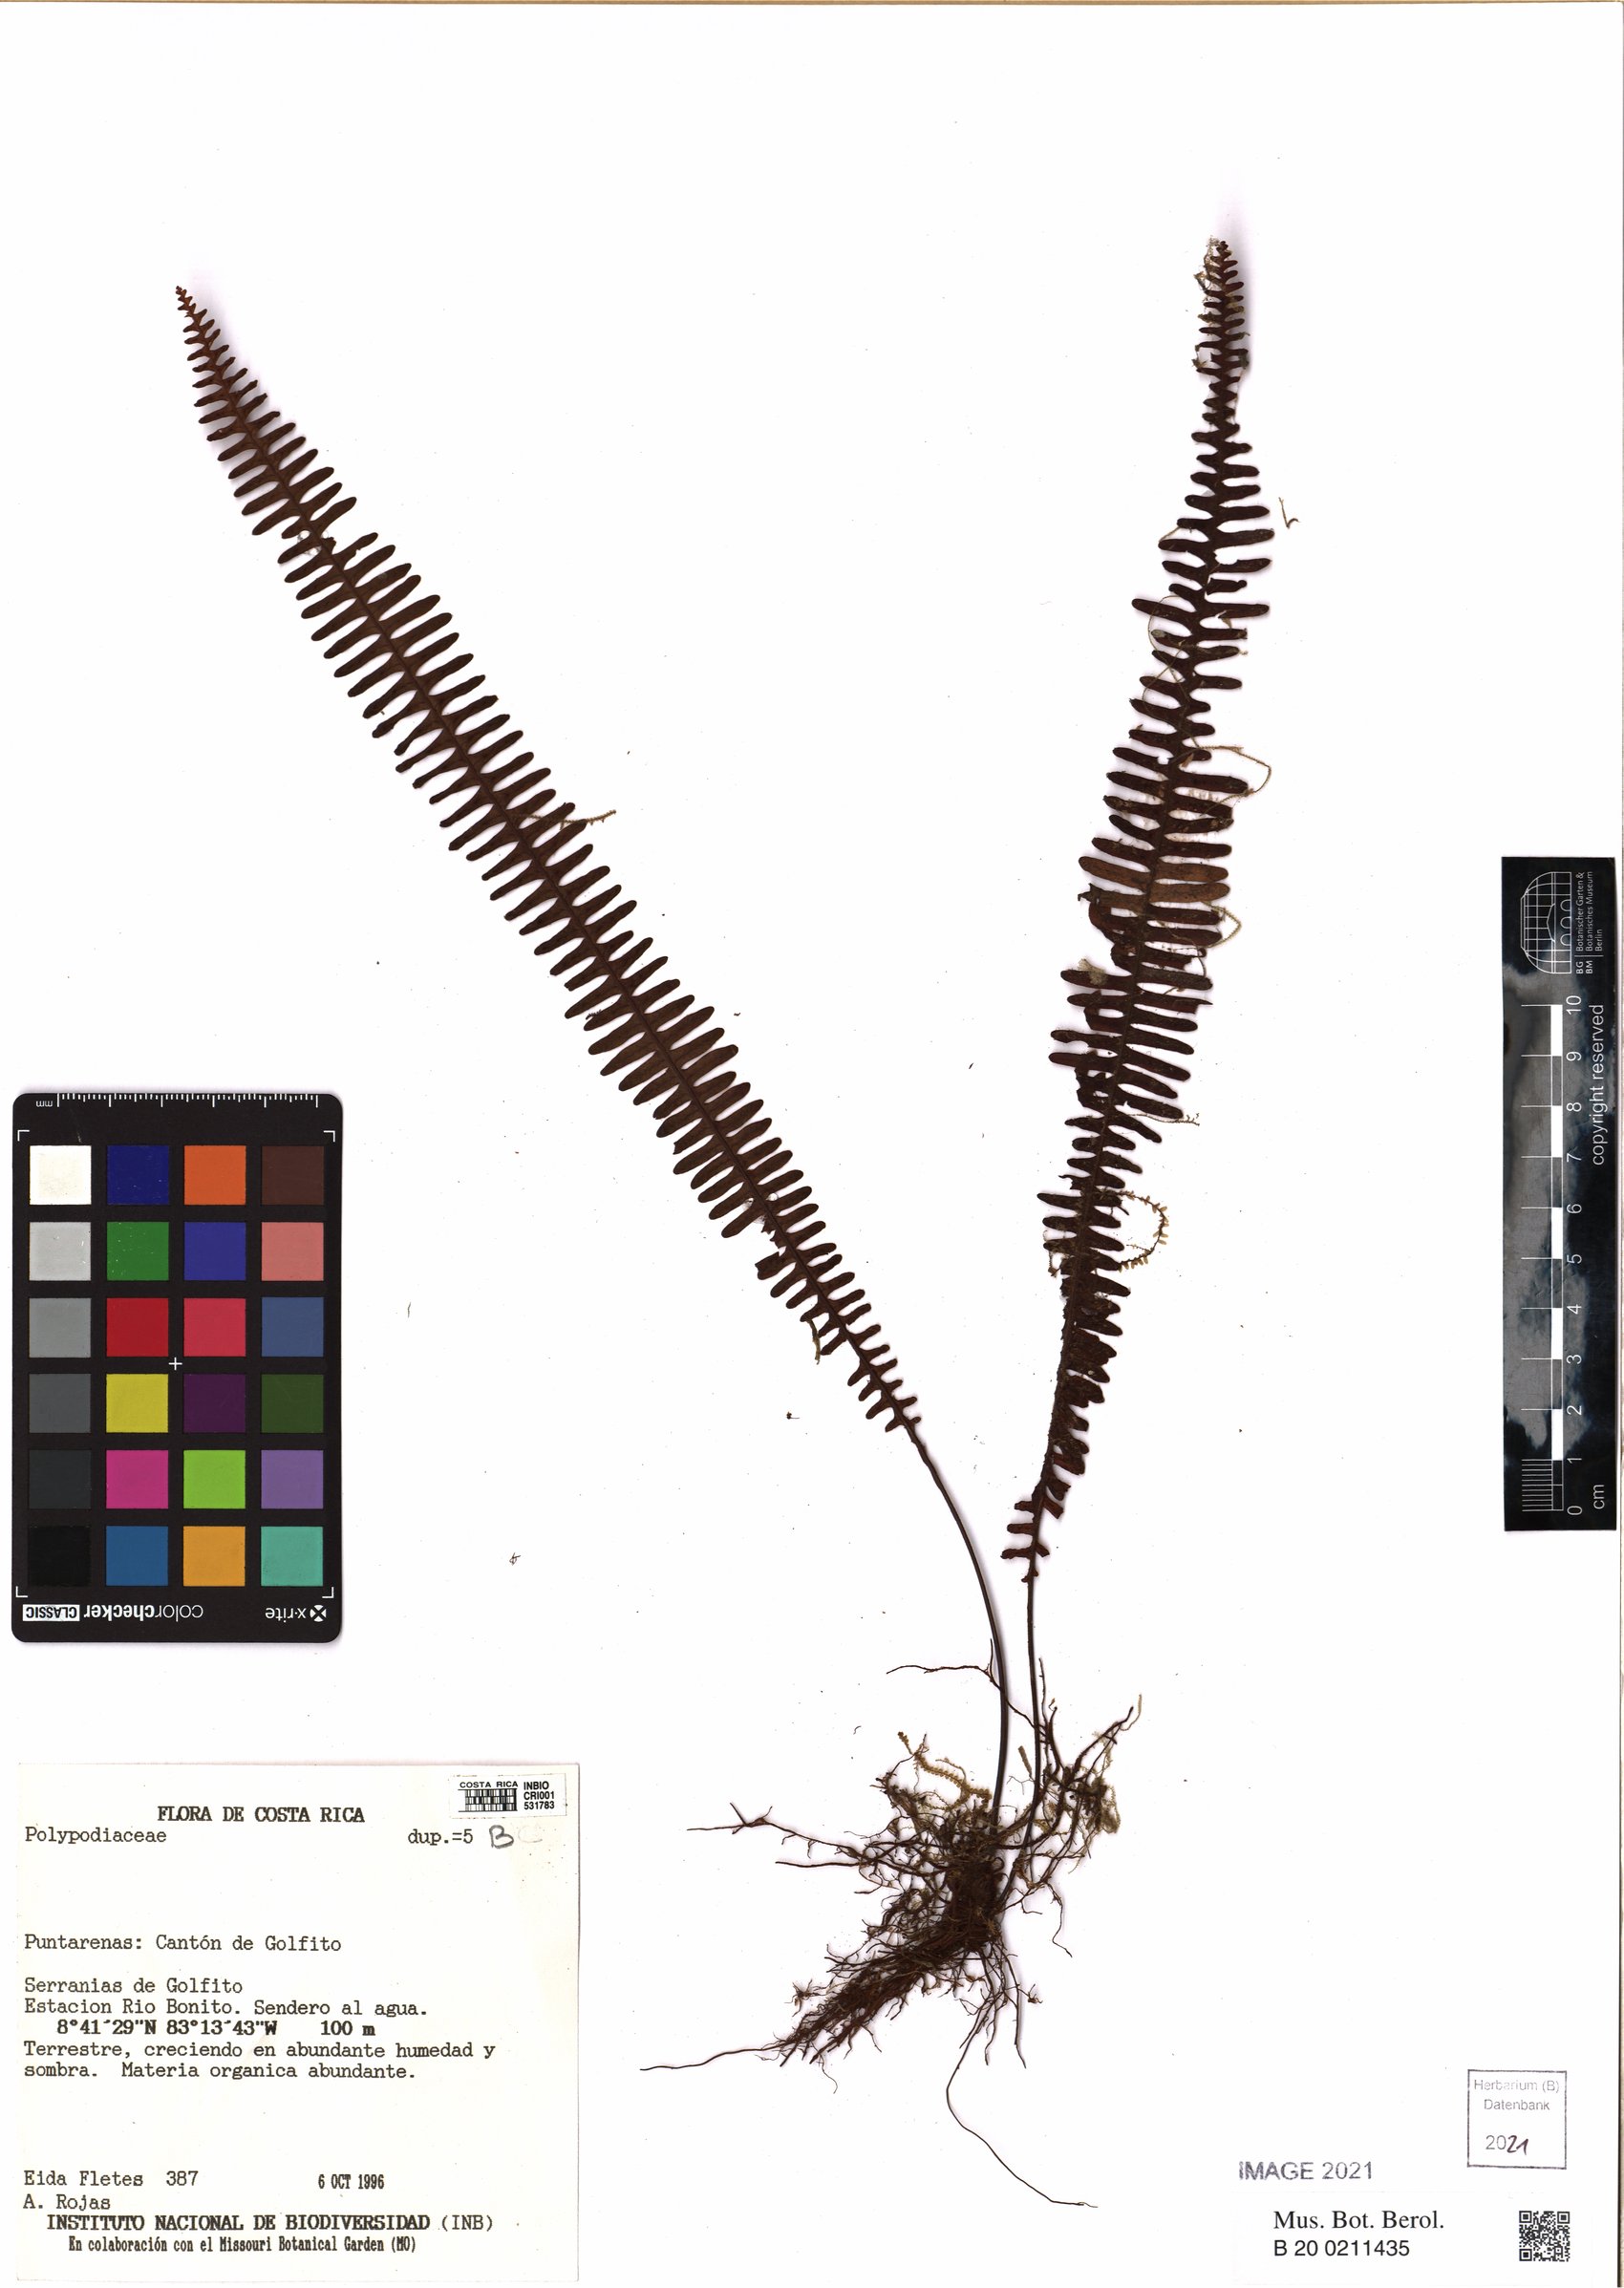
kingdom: Plantae
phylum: Tracheophyta
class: Polypodiopsida
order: Polypodiales
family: Polypodiaceae
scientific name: Polypodiaceae
